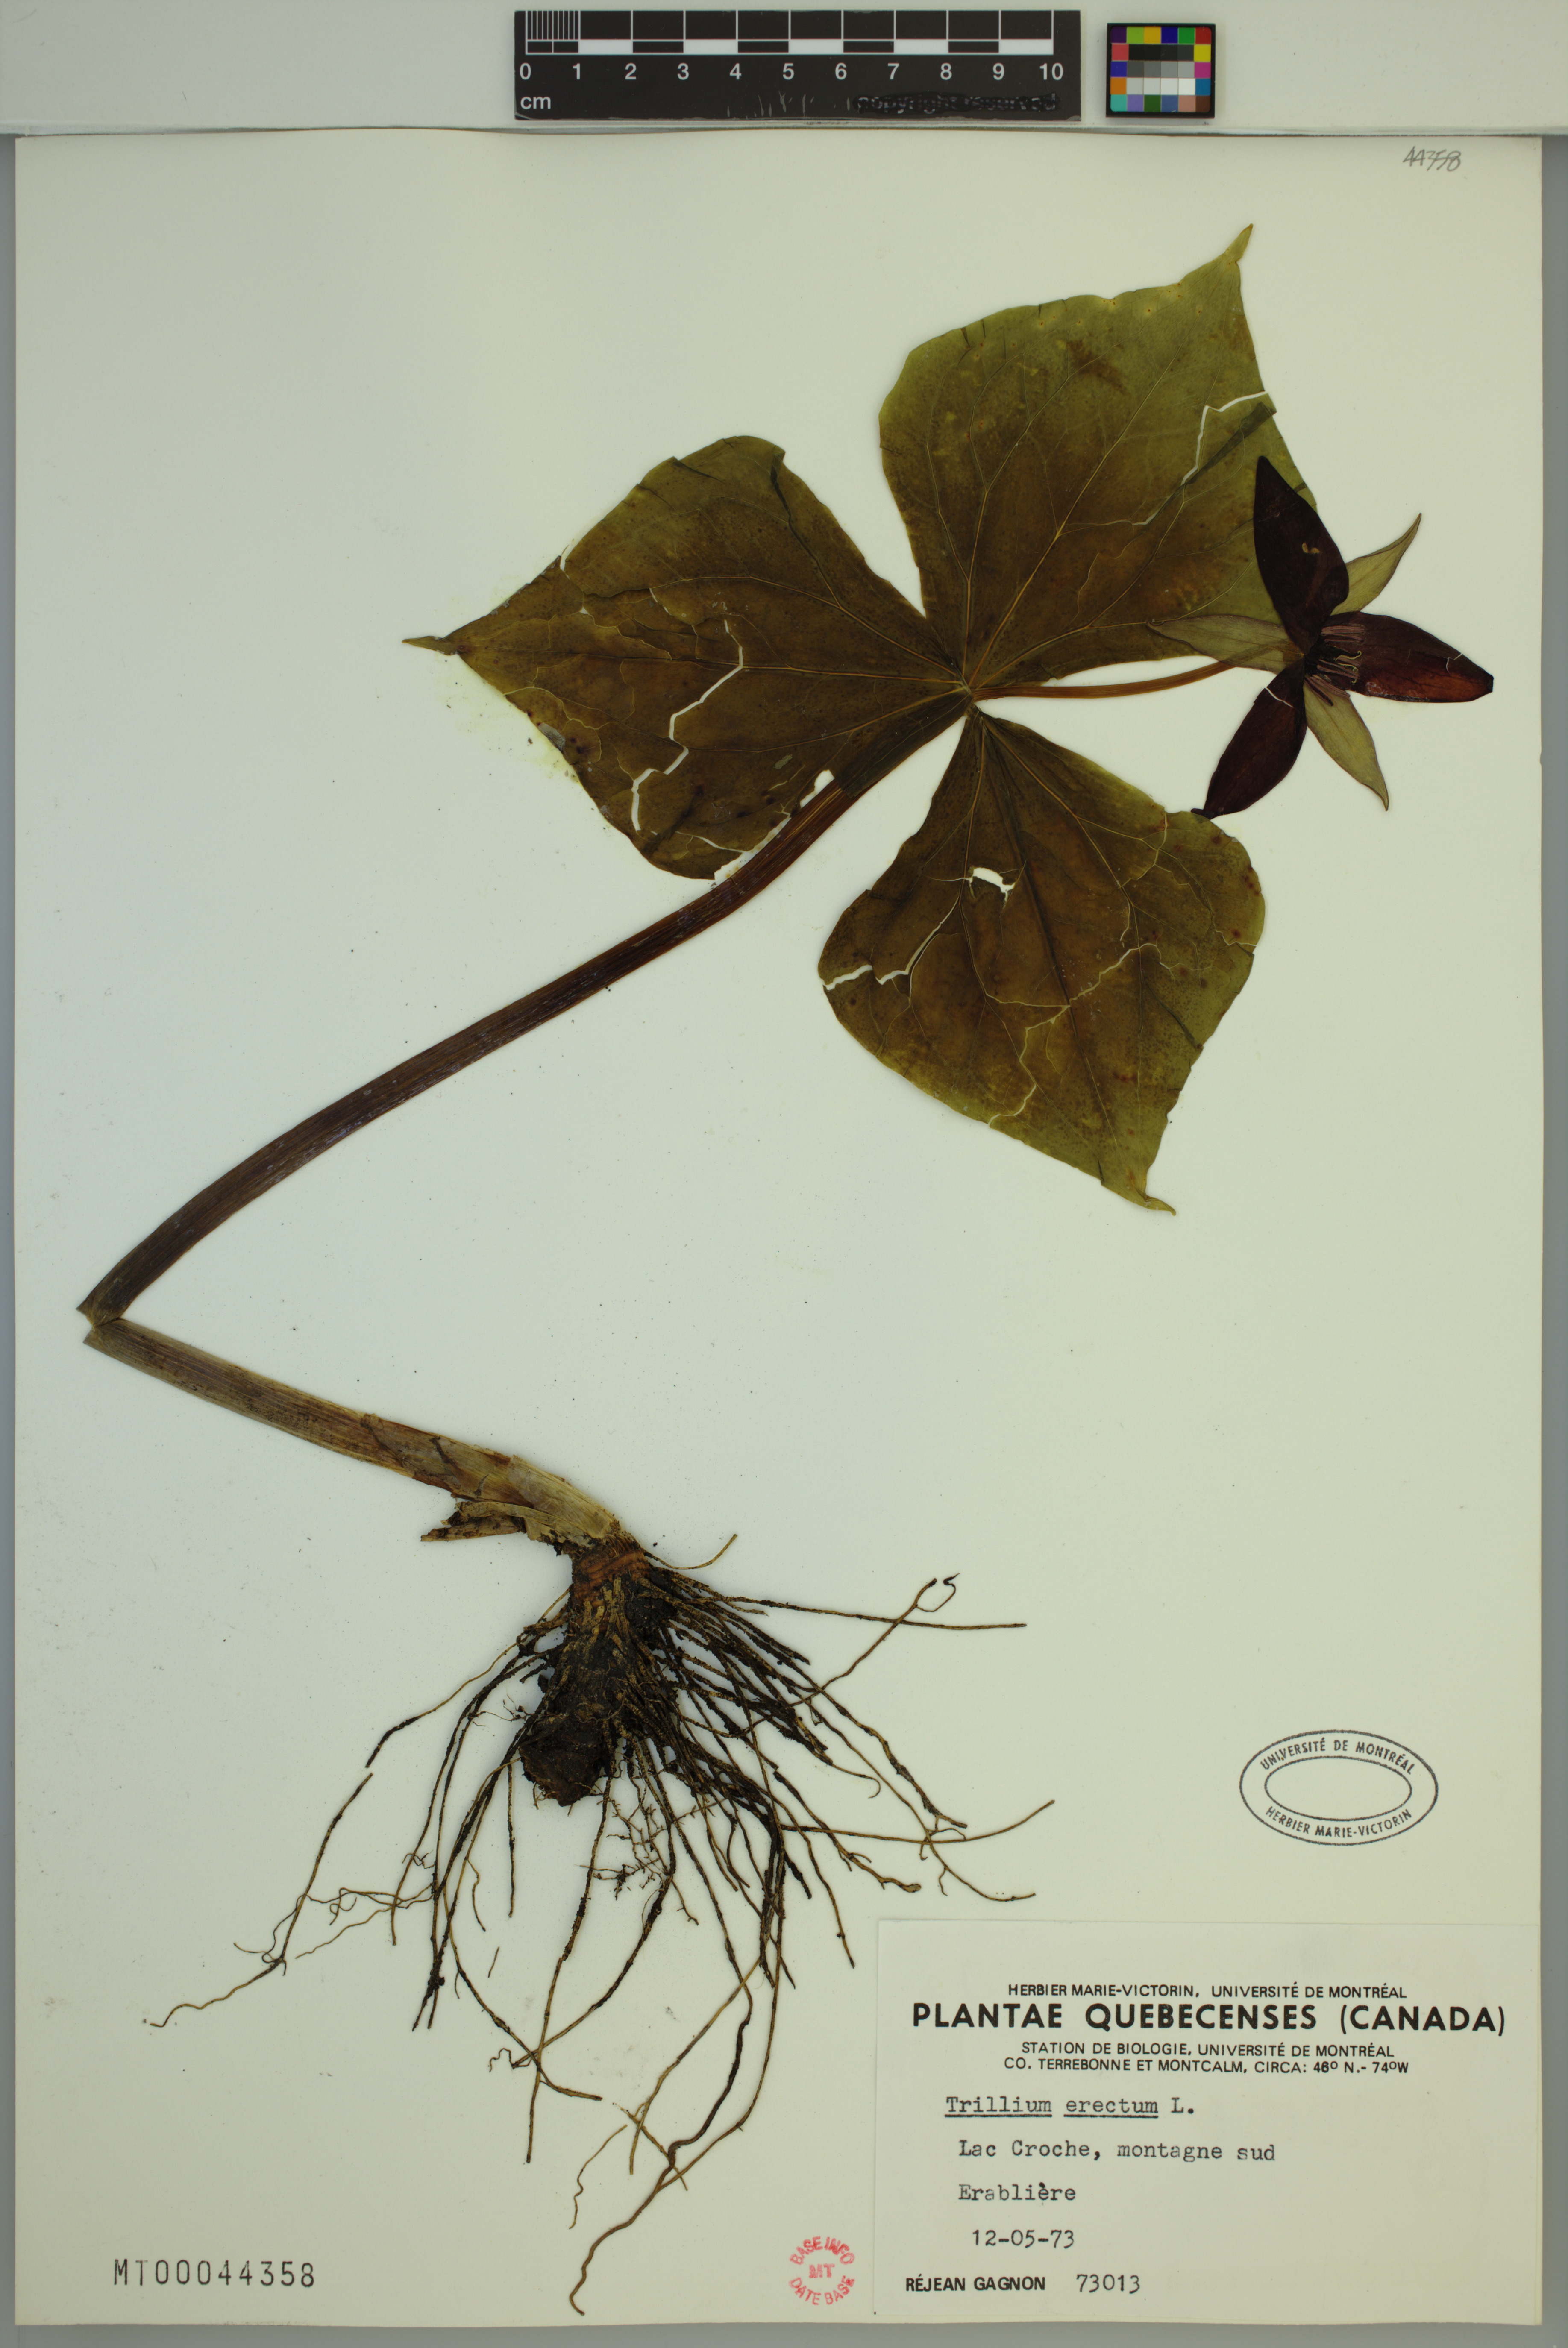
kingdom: Plantae
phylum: Tracheophyta
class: Liliopsida
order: Liliales
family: Melanthiaceae
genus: Trillium
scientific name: Trillium erectum
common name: Purple trillium
